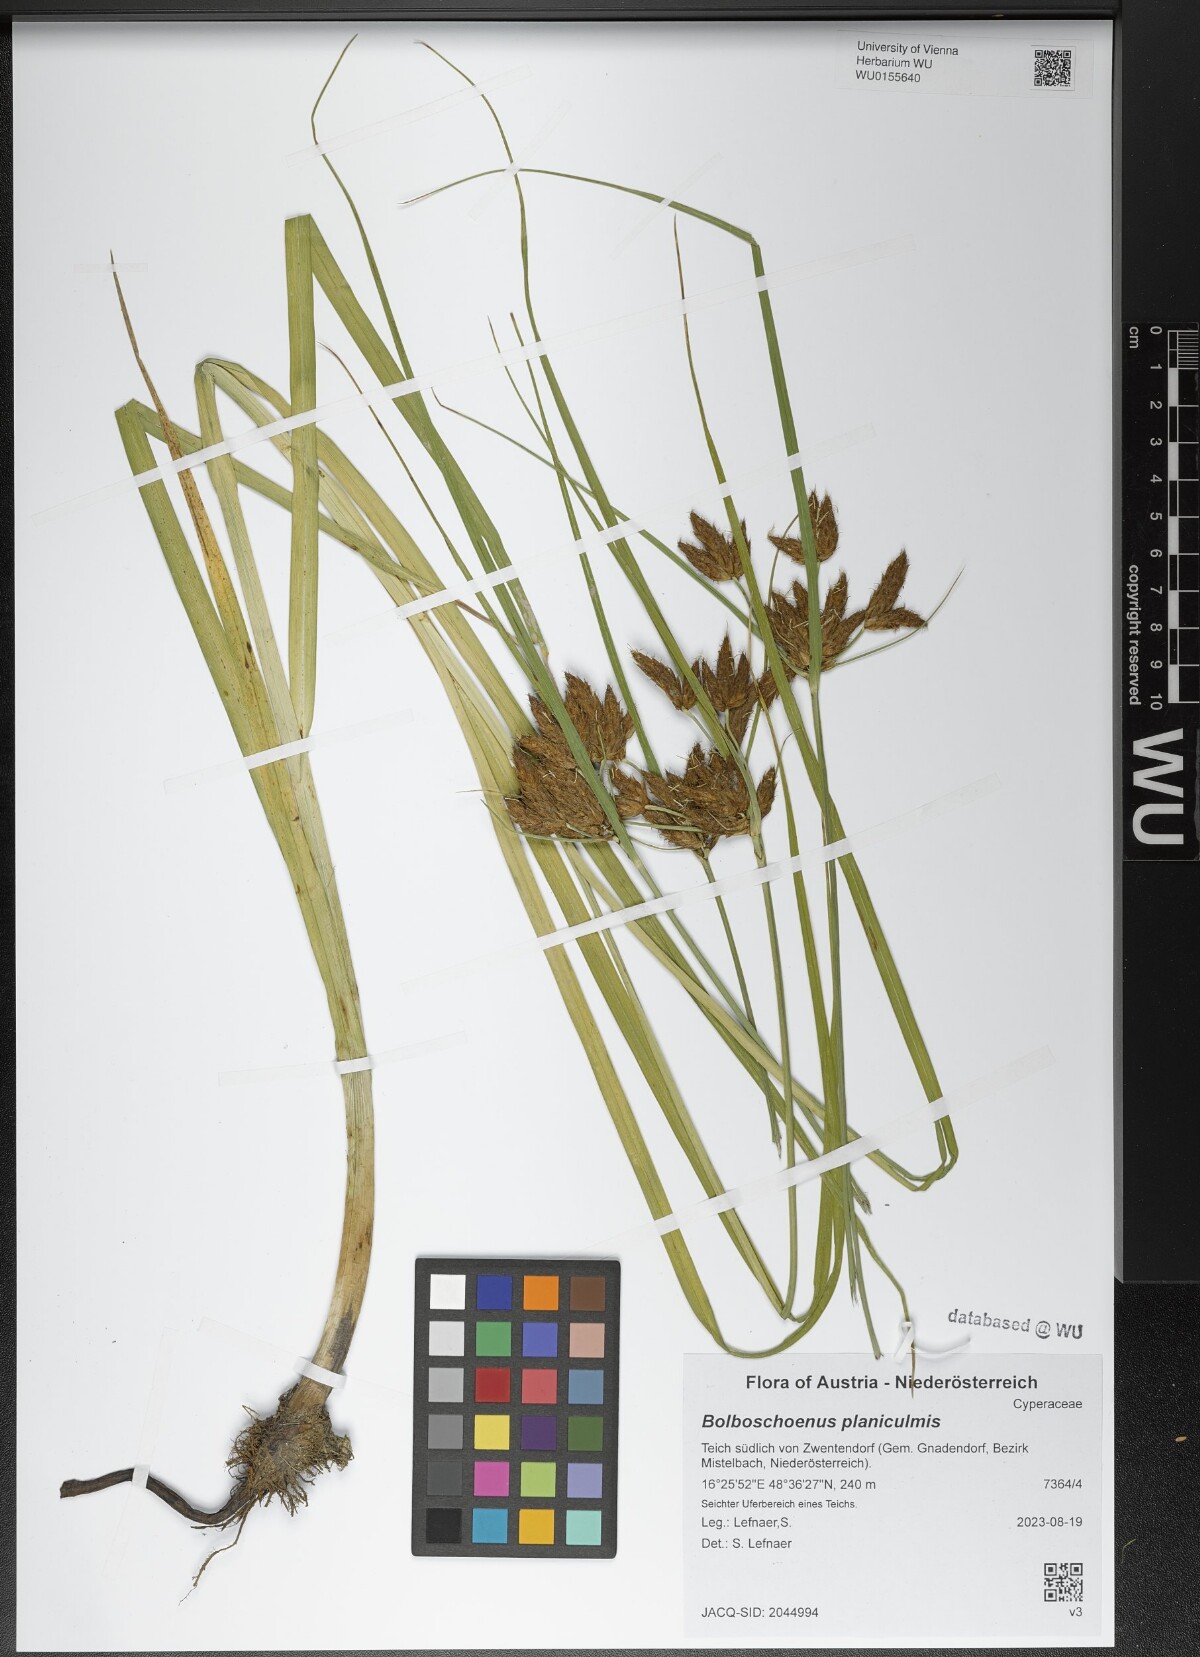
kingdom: Plantae
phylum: Tracheophyta
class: Liliopsida
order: Poales
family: Cyperaceae
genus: Bolboschoenus
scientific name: Bolboschoenus planiculmis
